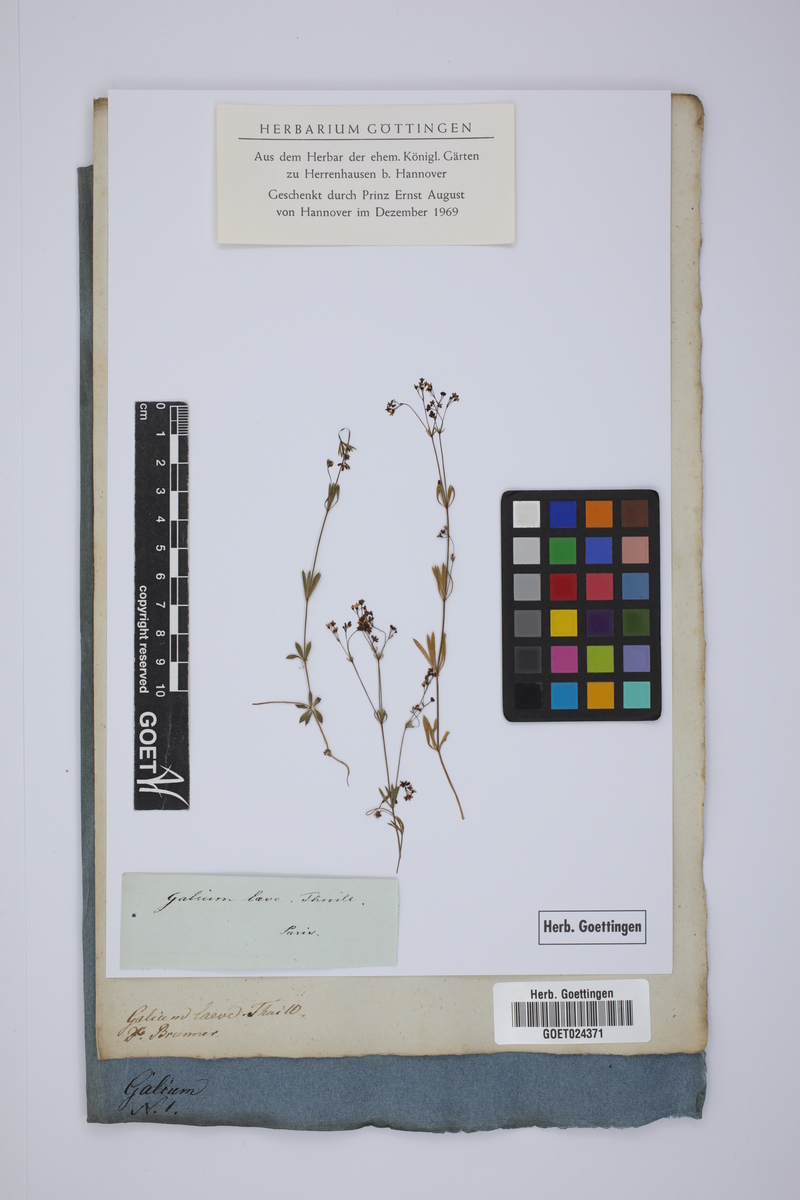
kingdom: Plantae
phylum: Tracheophyta
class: Magnoliopsida
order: Gentianales
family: Rubiaceae
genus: Galium
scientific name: Galium pumilum
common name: Slender bedstraw
